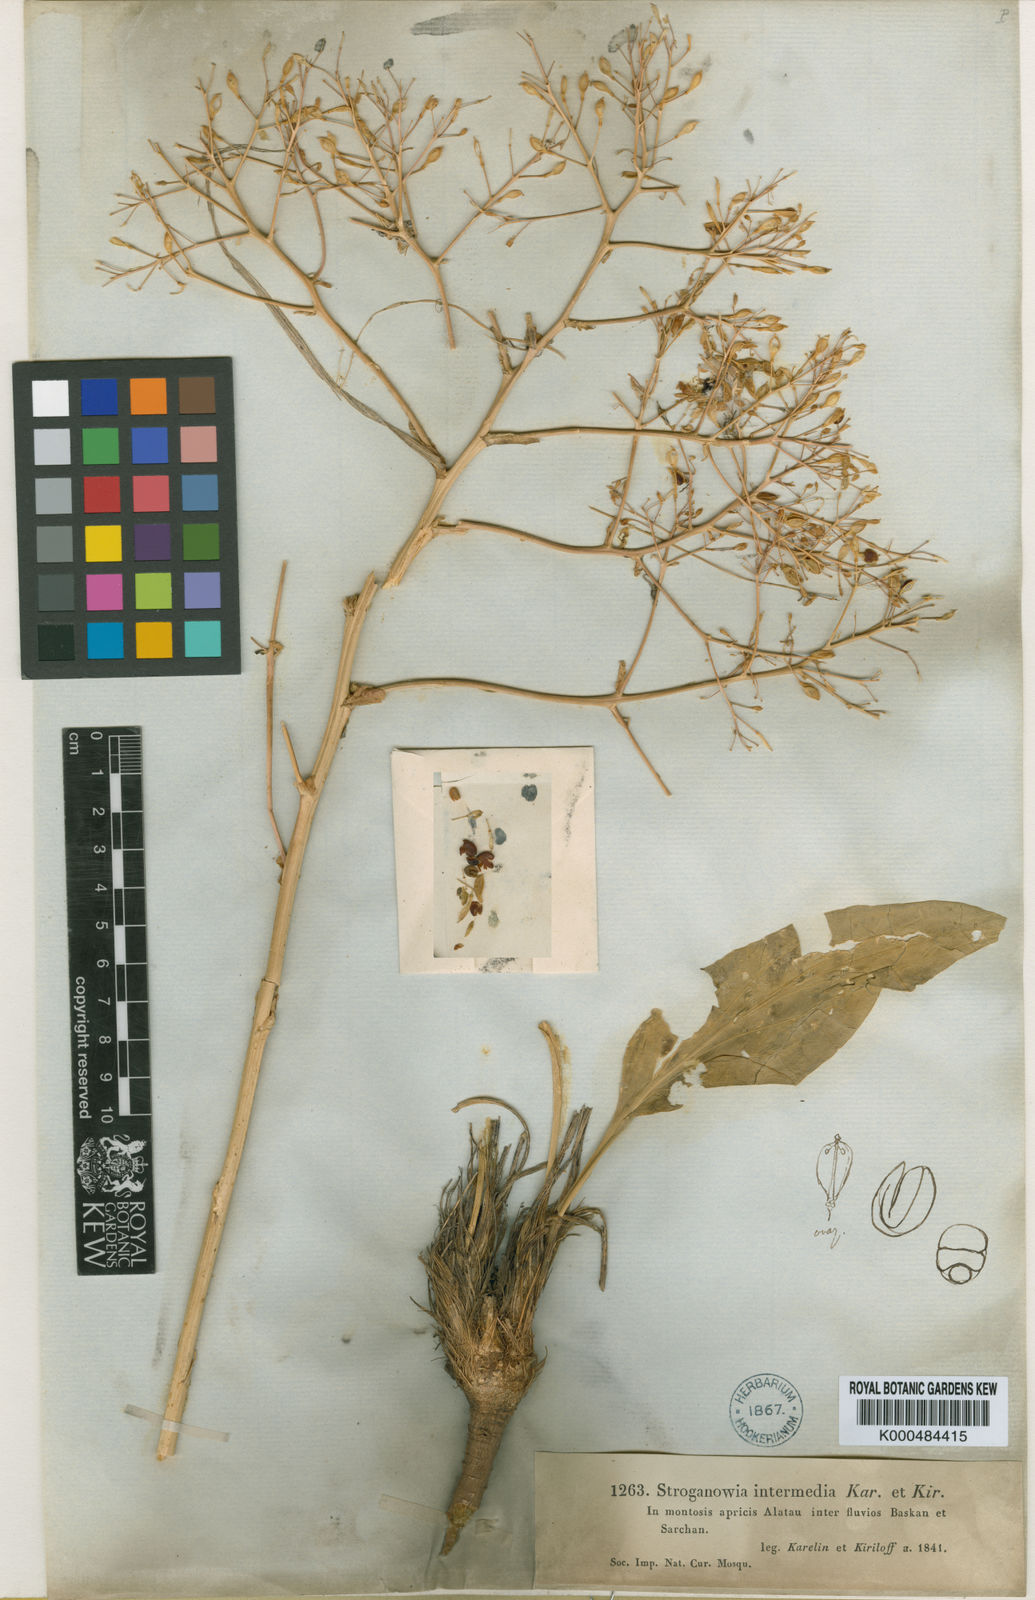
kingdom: Plantae
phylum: Tracheophyta
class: Magnoliopsida
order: Brassicales
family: Brassicaceae
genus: Lepidium
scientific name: Lepidium karelinianum
